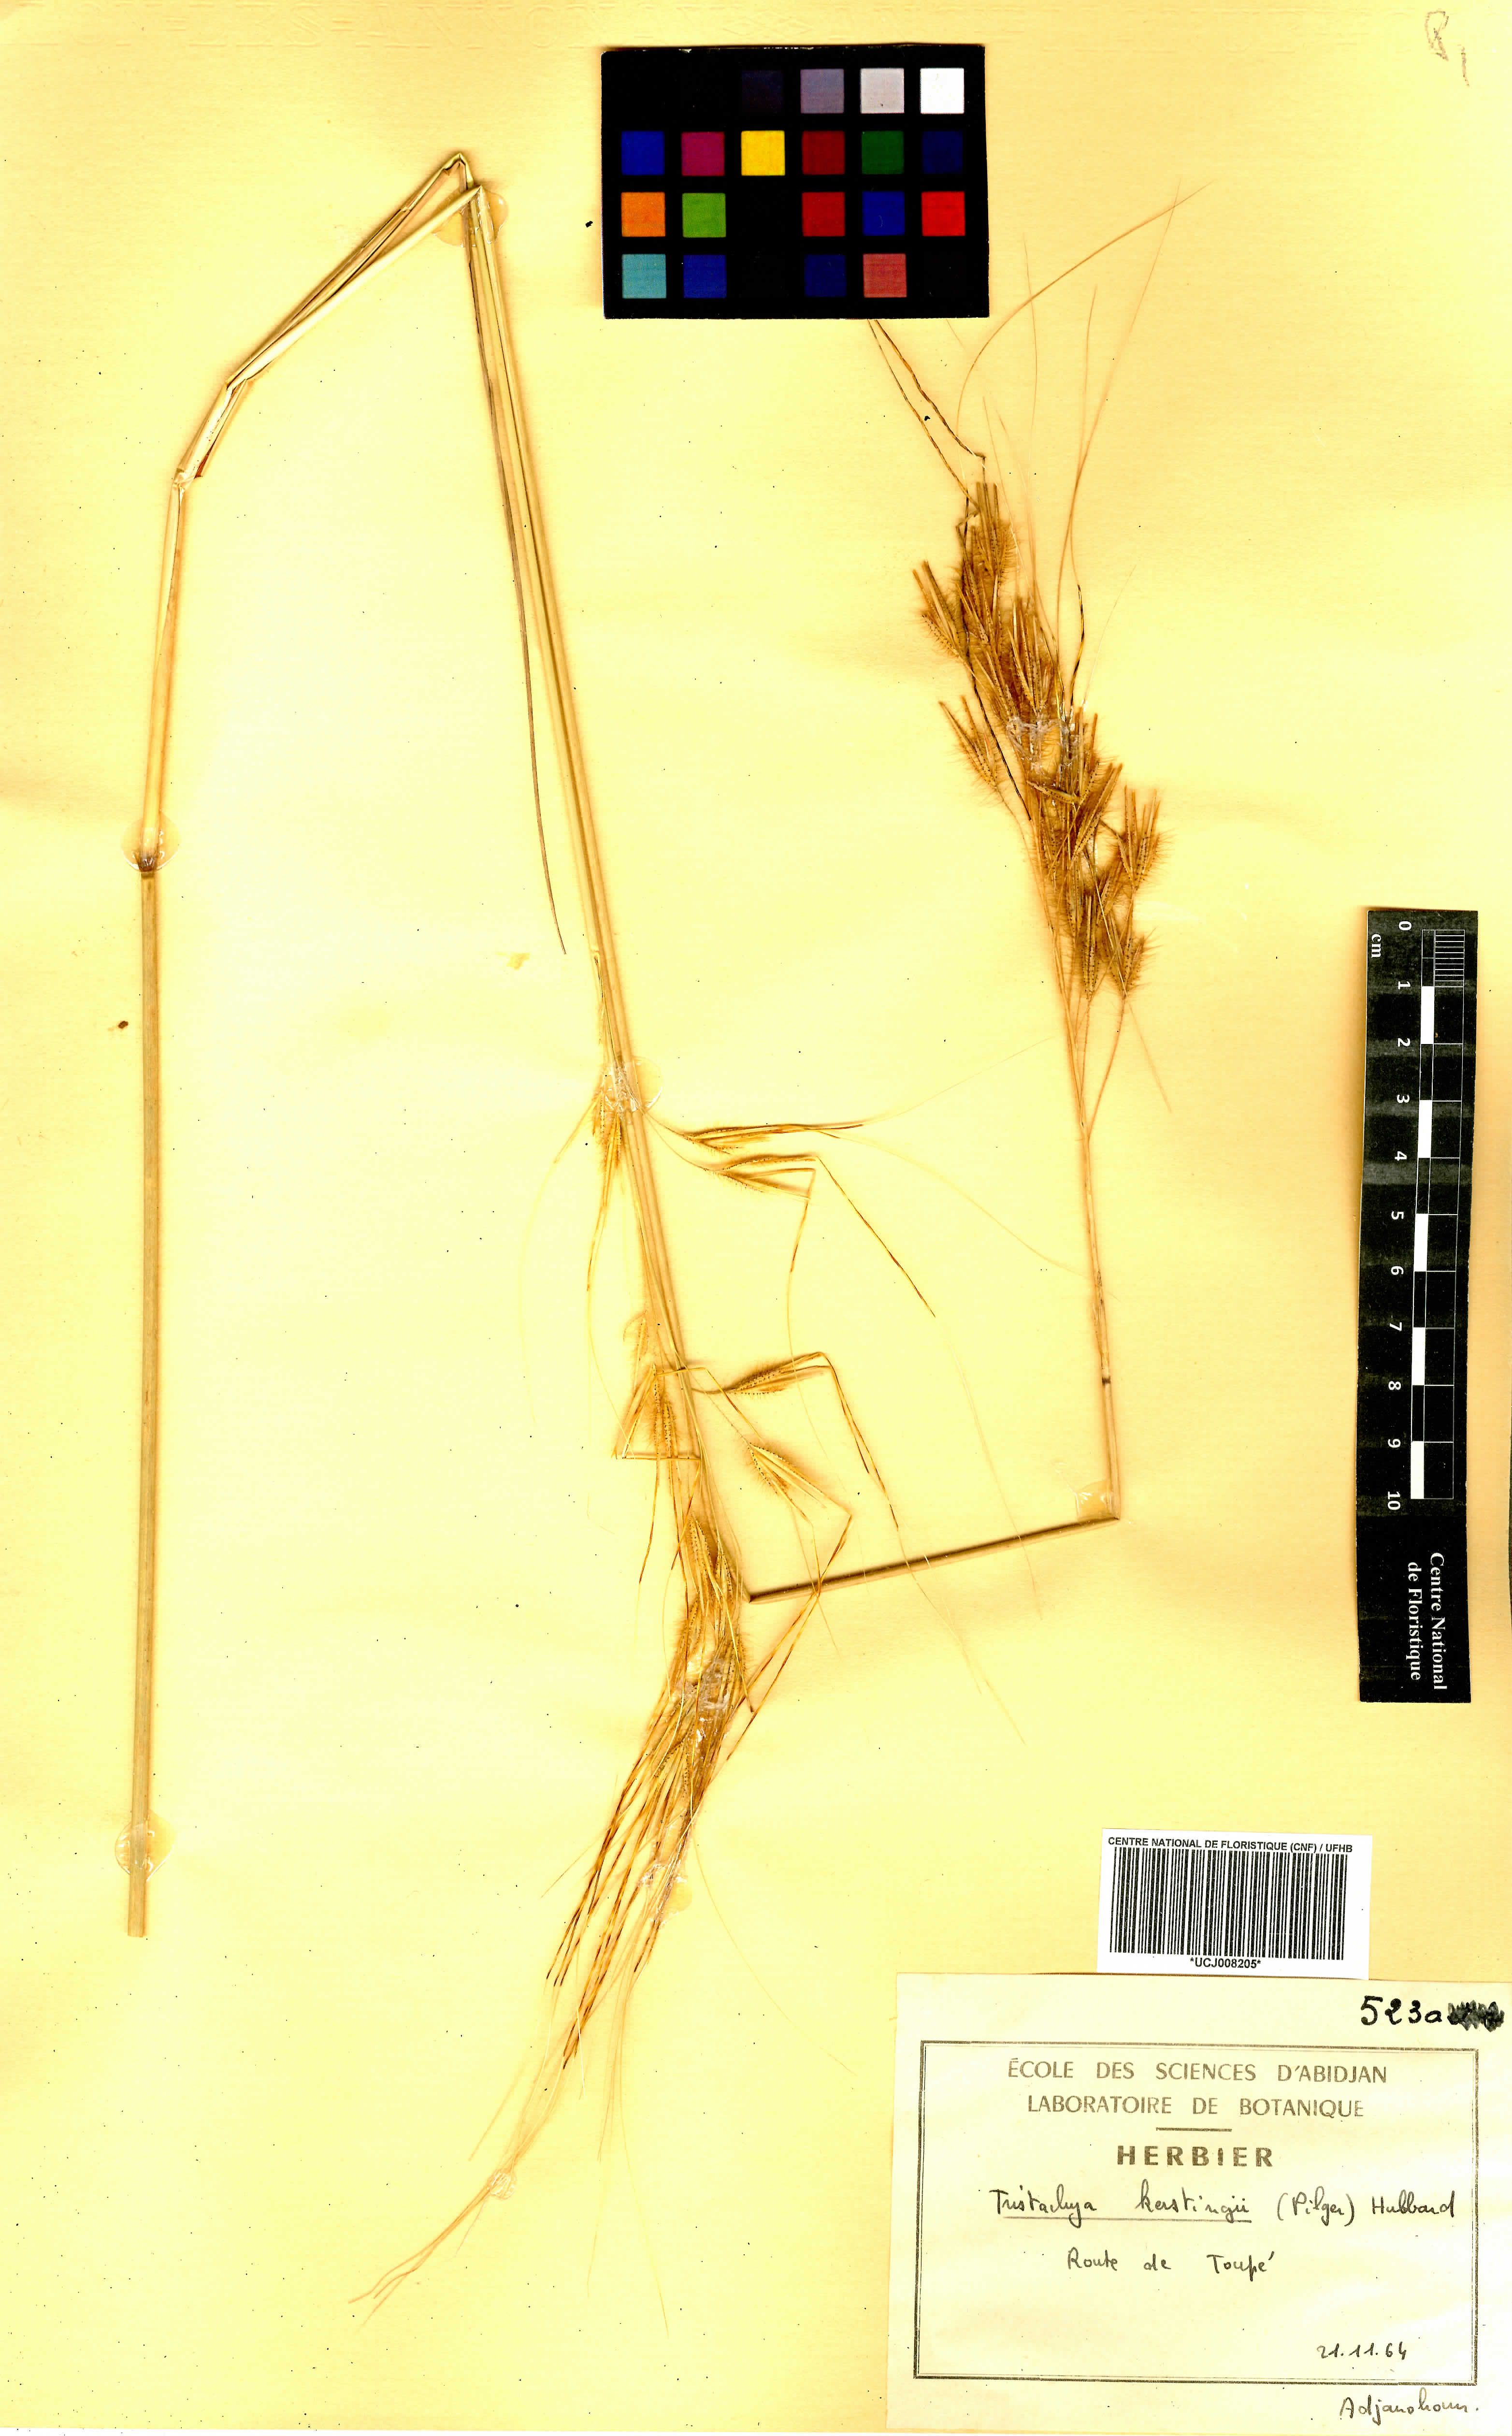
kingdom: Plantae
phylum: Tracheophyta
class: Liliopsida
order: Poales
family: Poaceae
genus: Loudetiopsis
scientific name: Loudetiopsis kerstingii
